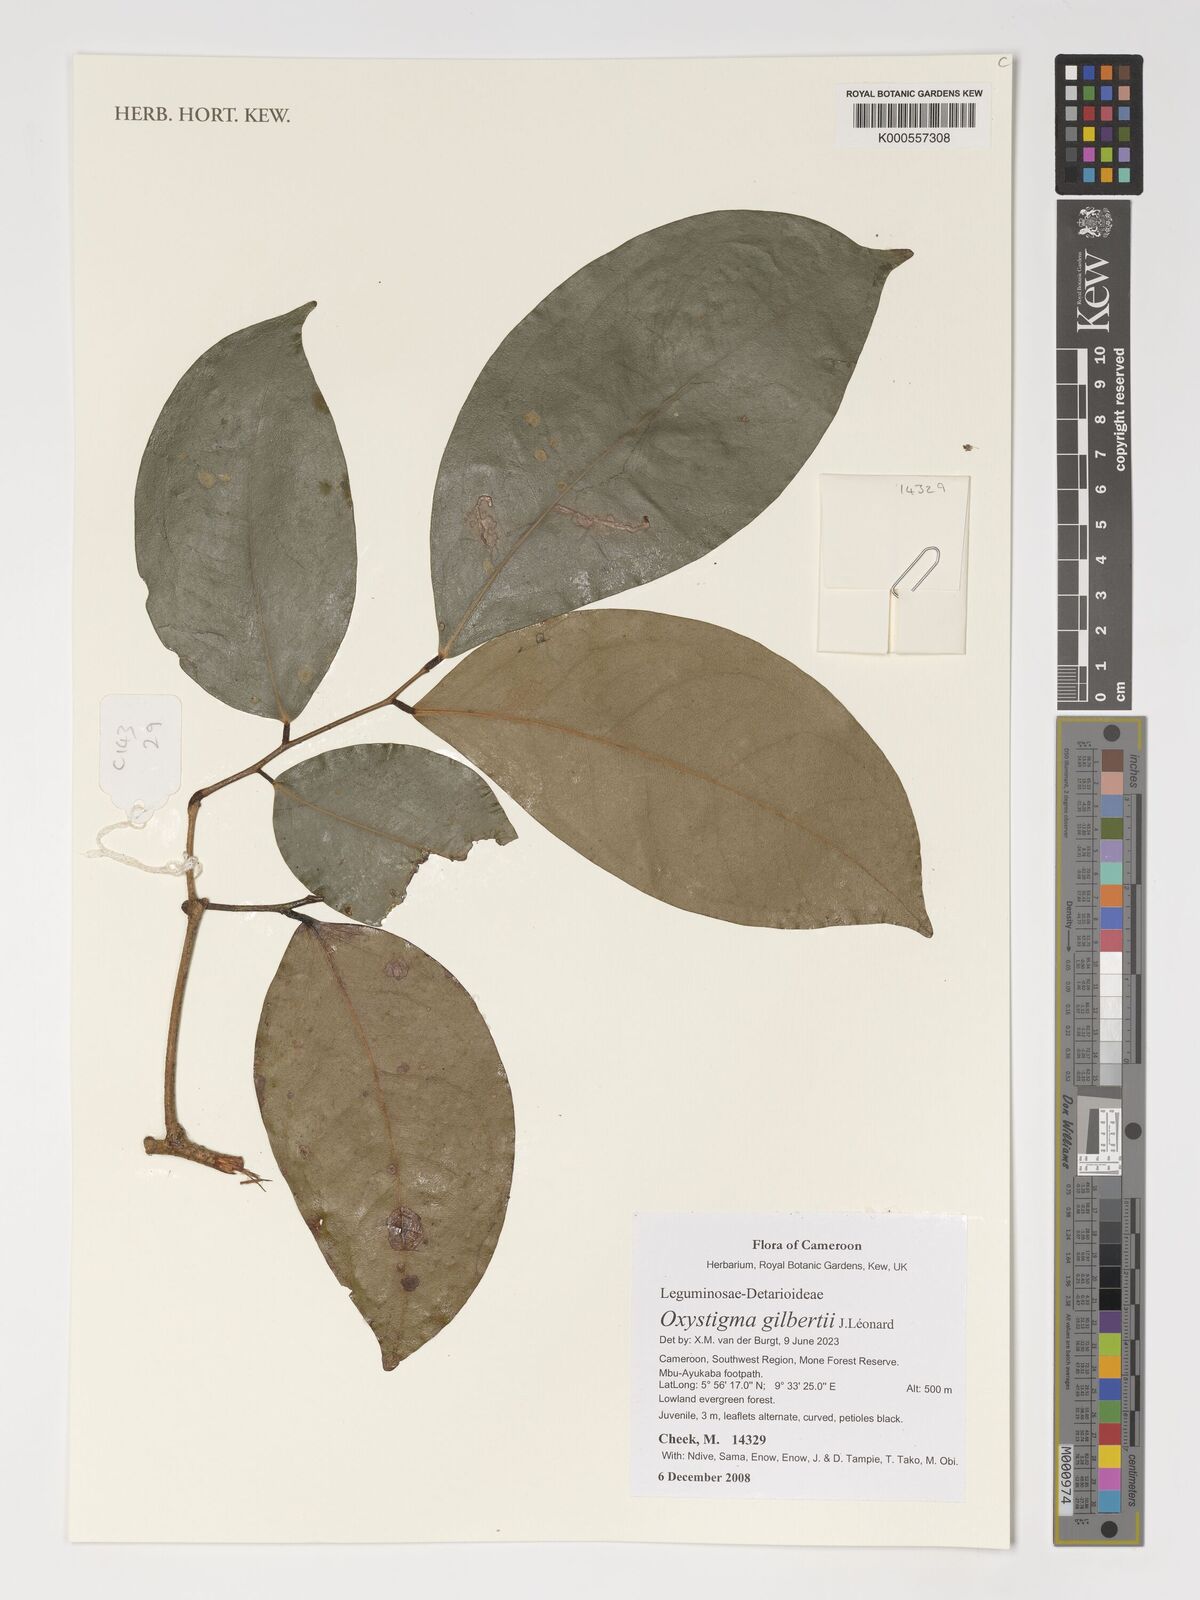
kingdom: Plantae
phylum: Tracheophyta
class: Magnoliopsida
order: Fabales
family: Fabaceae
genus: Prioria
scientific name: Prioria gilbertii
